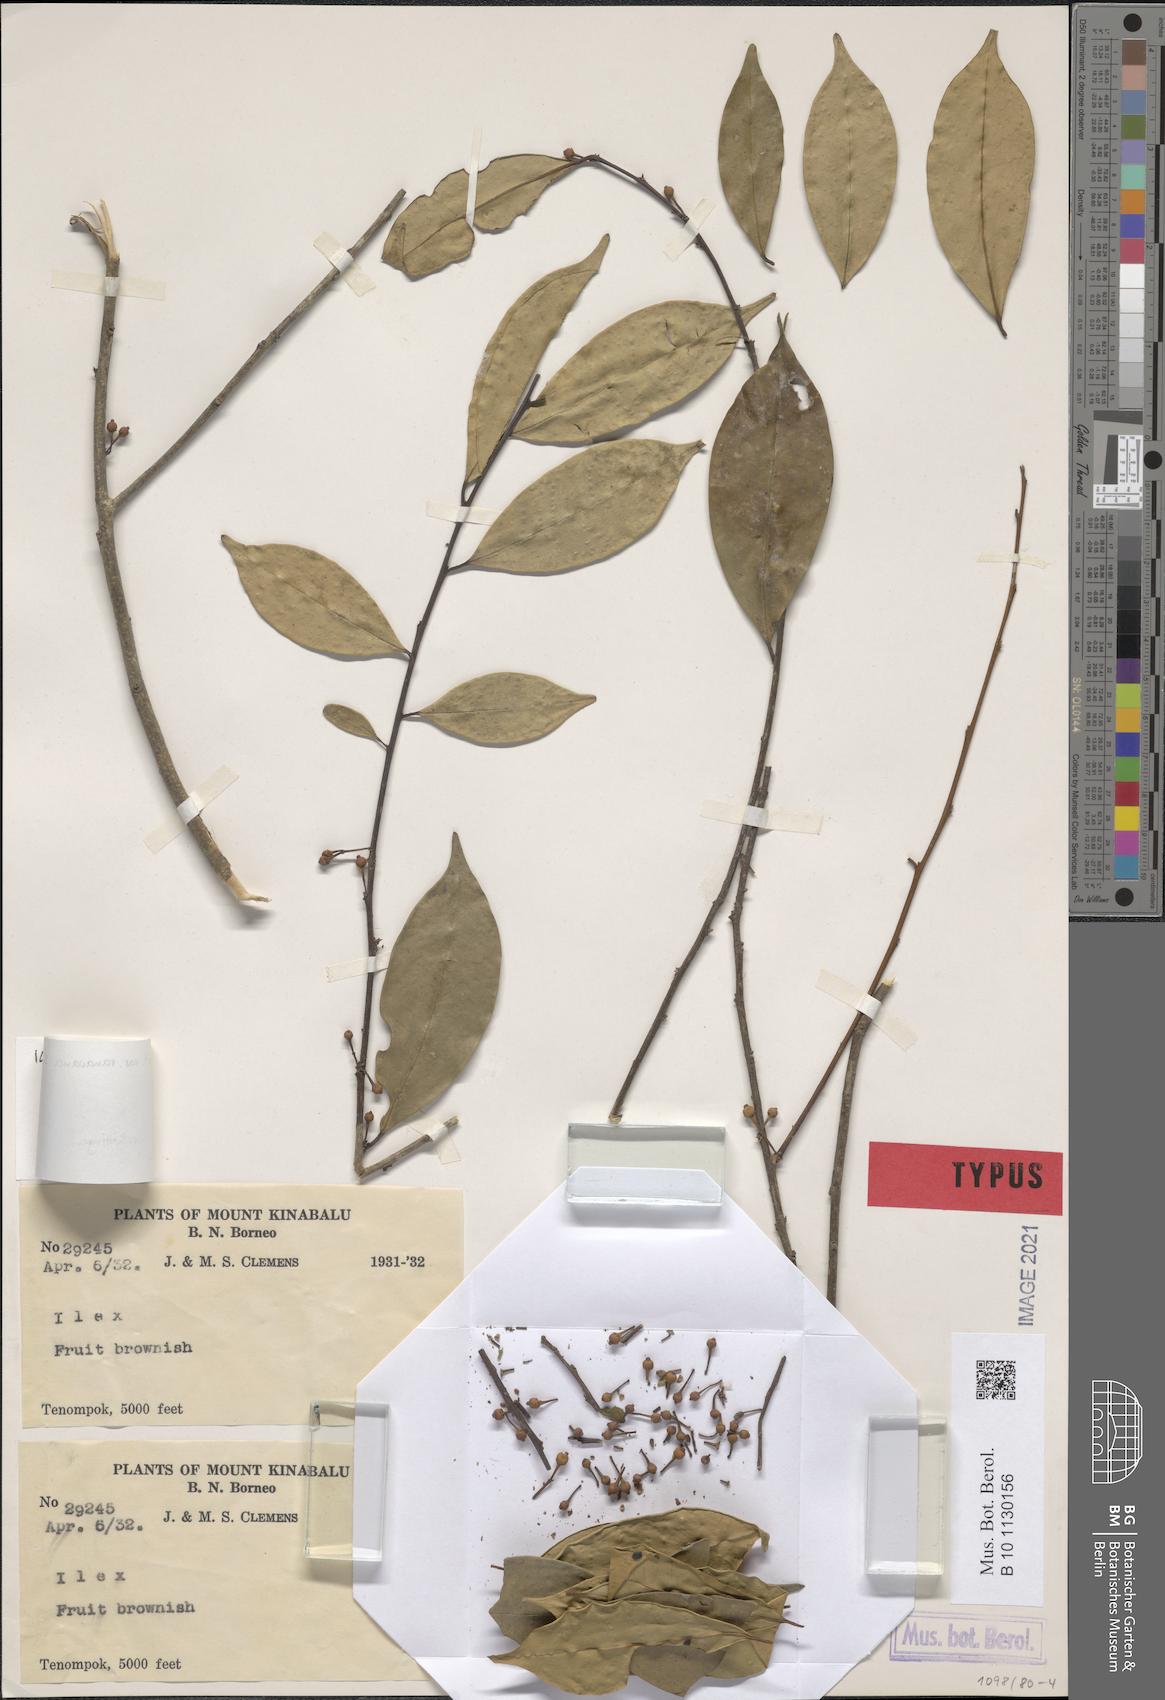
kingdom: Plantae
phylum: Tracheophyta
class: Magnoliopsida
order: Aquifoliales
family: Aquifoliaceae
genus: Ilex
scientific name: Ilex celebensis
